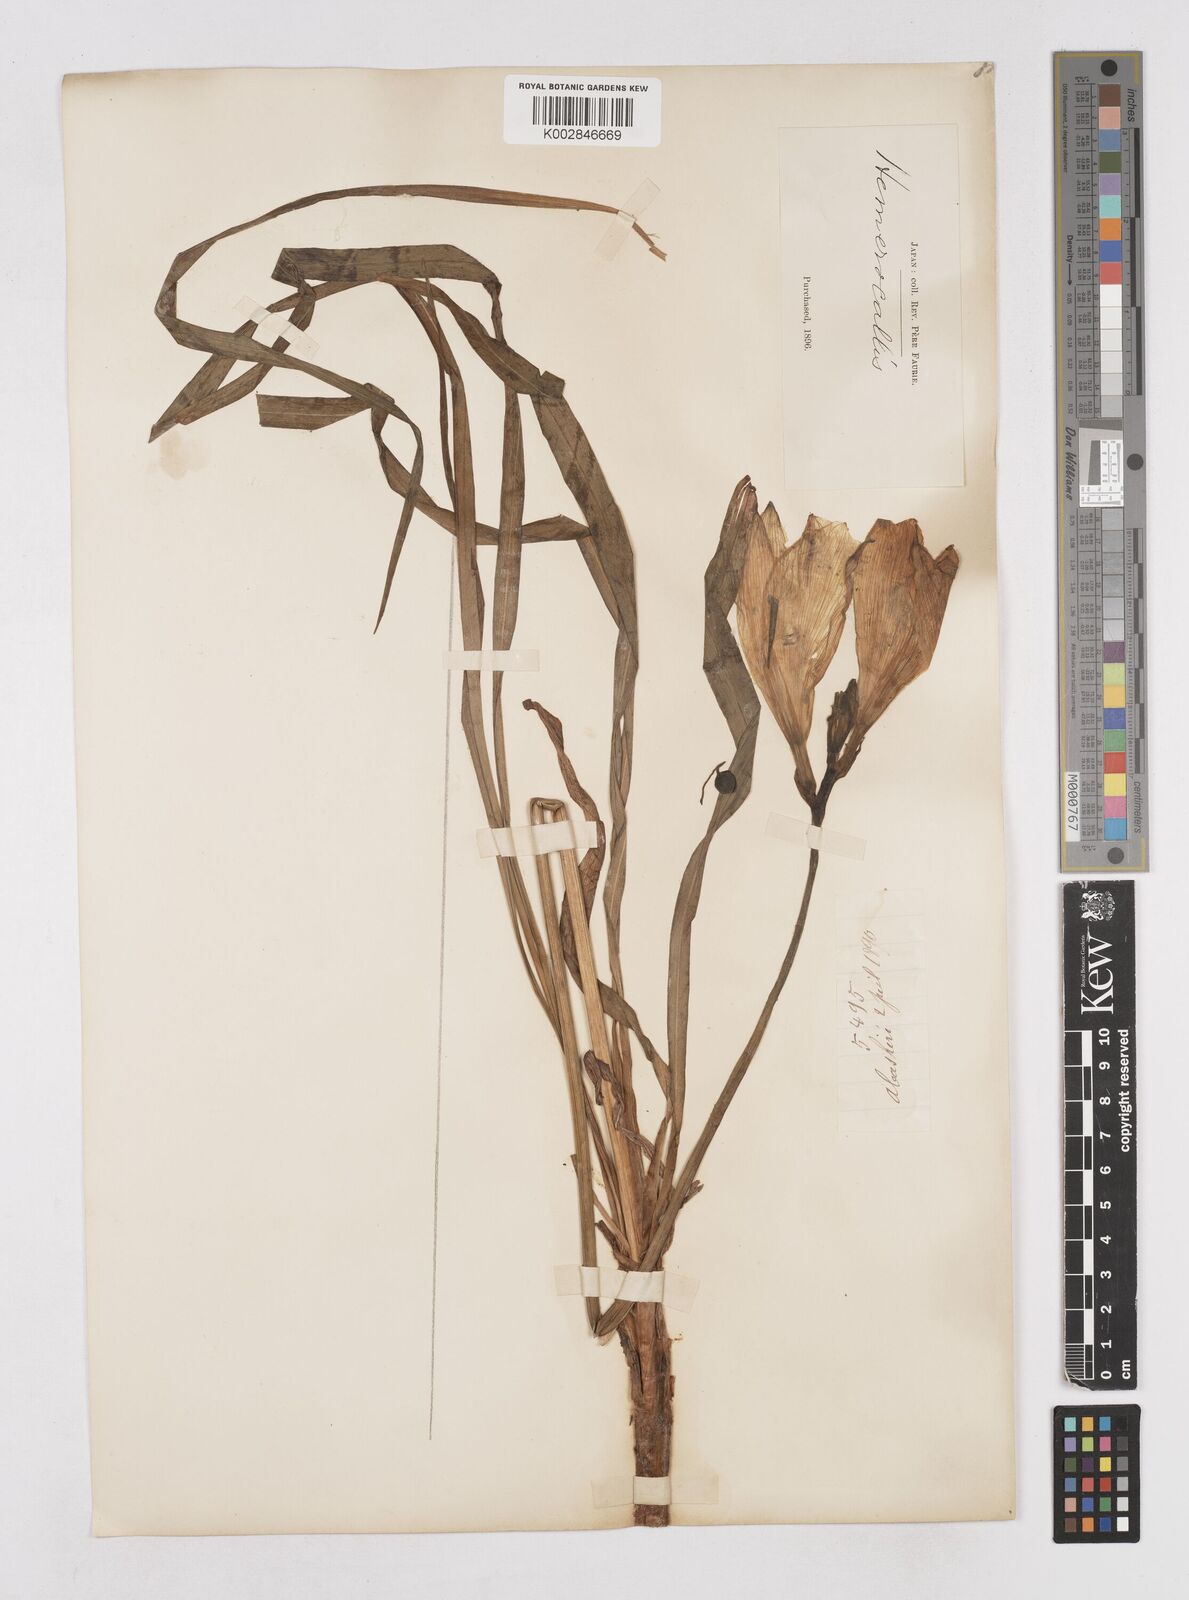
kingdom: Plantae
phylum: Tracheophyta
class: Liliopsida
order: Asparagales
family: Asphodelaceae
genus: Hemerocallis
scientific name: Hemerocallis fulva
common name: Orange day-lily
